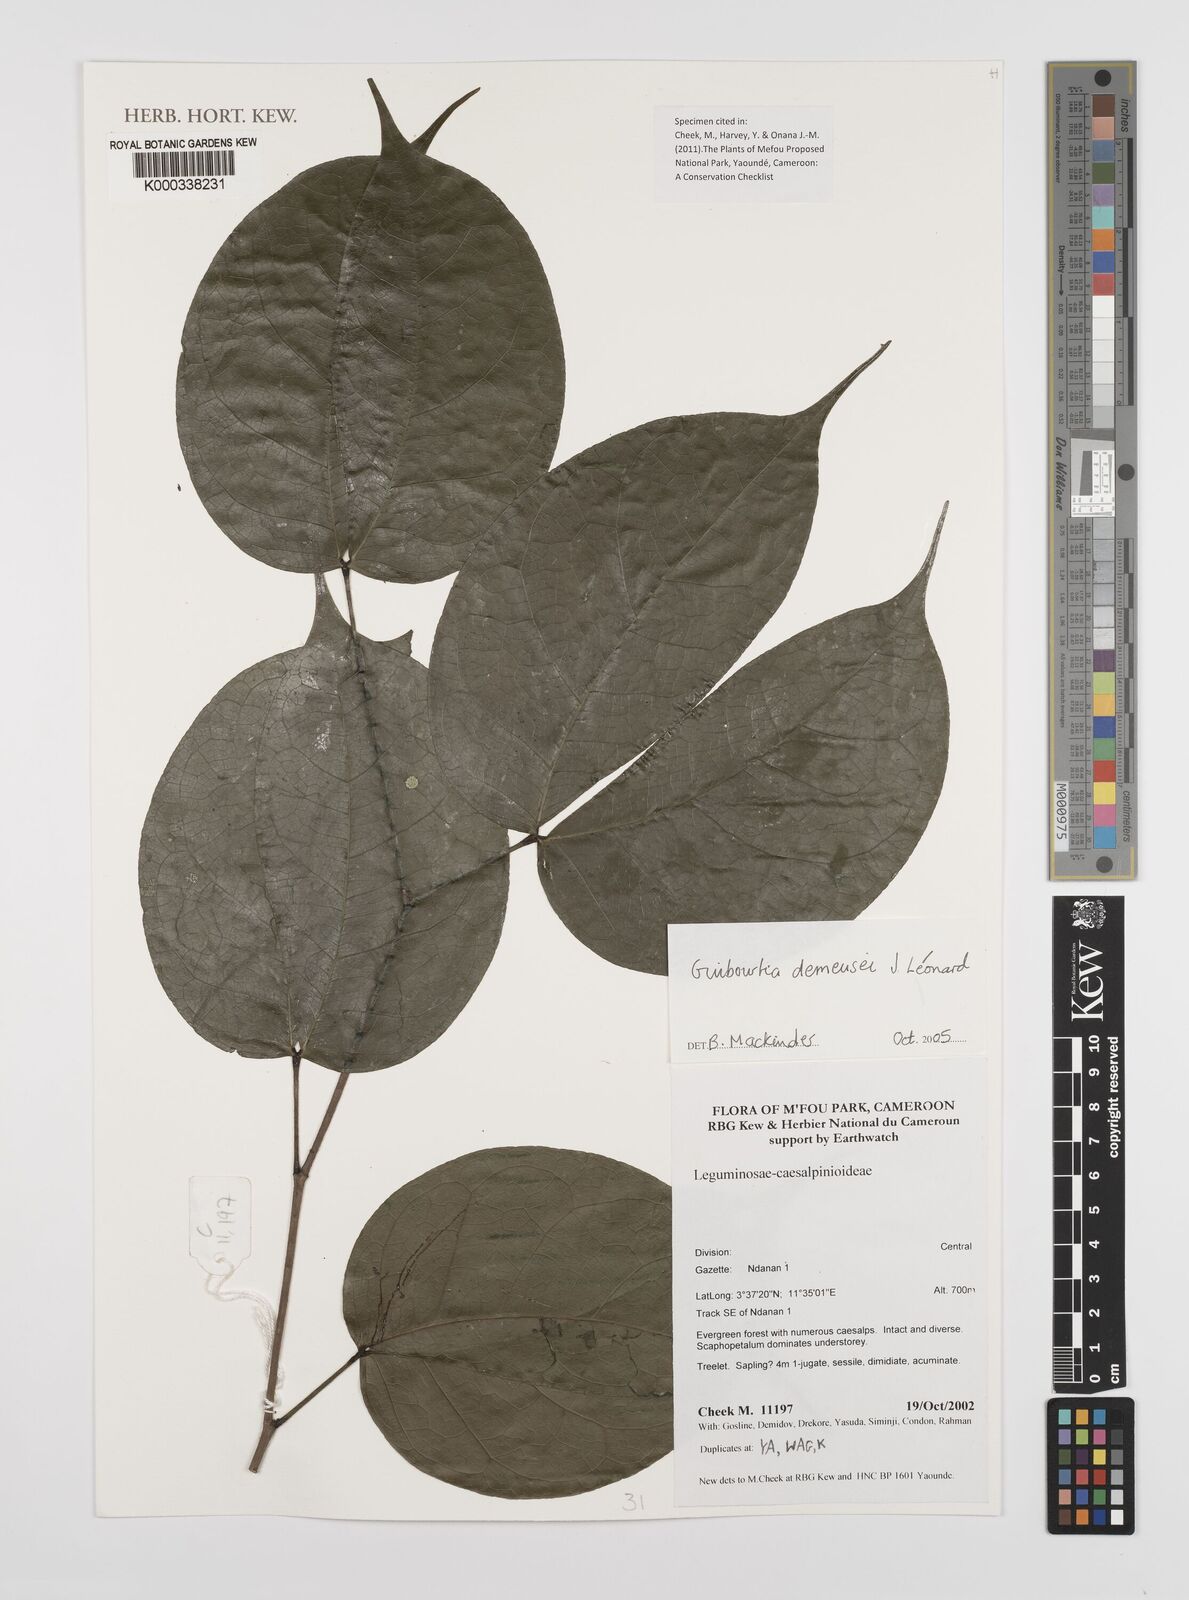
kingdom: Plantae
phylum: Tracheophyta
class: Magnoliopsida
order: Fabales
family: Fabaceae
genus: Guibourtia
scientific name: Guibourtia
